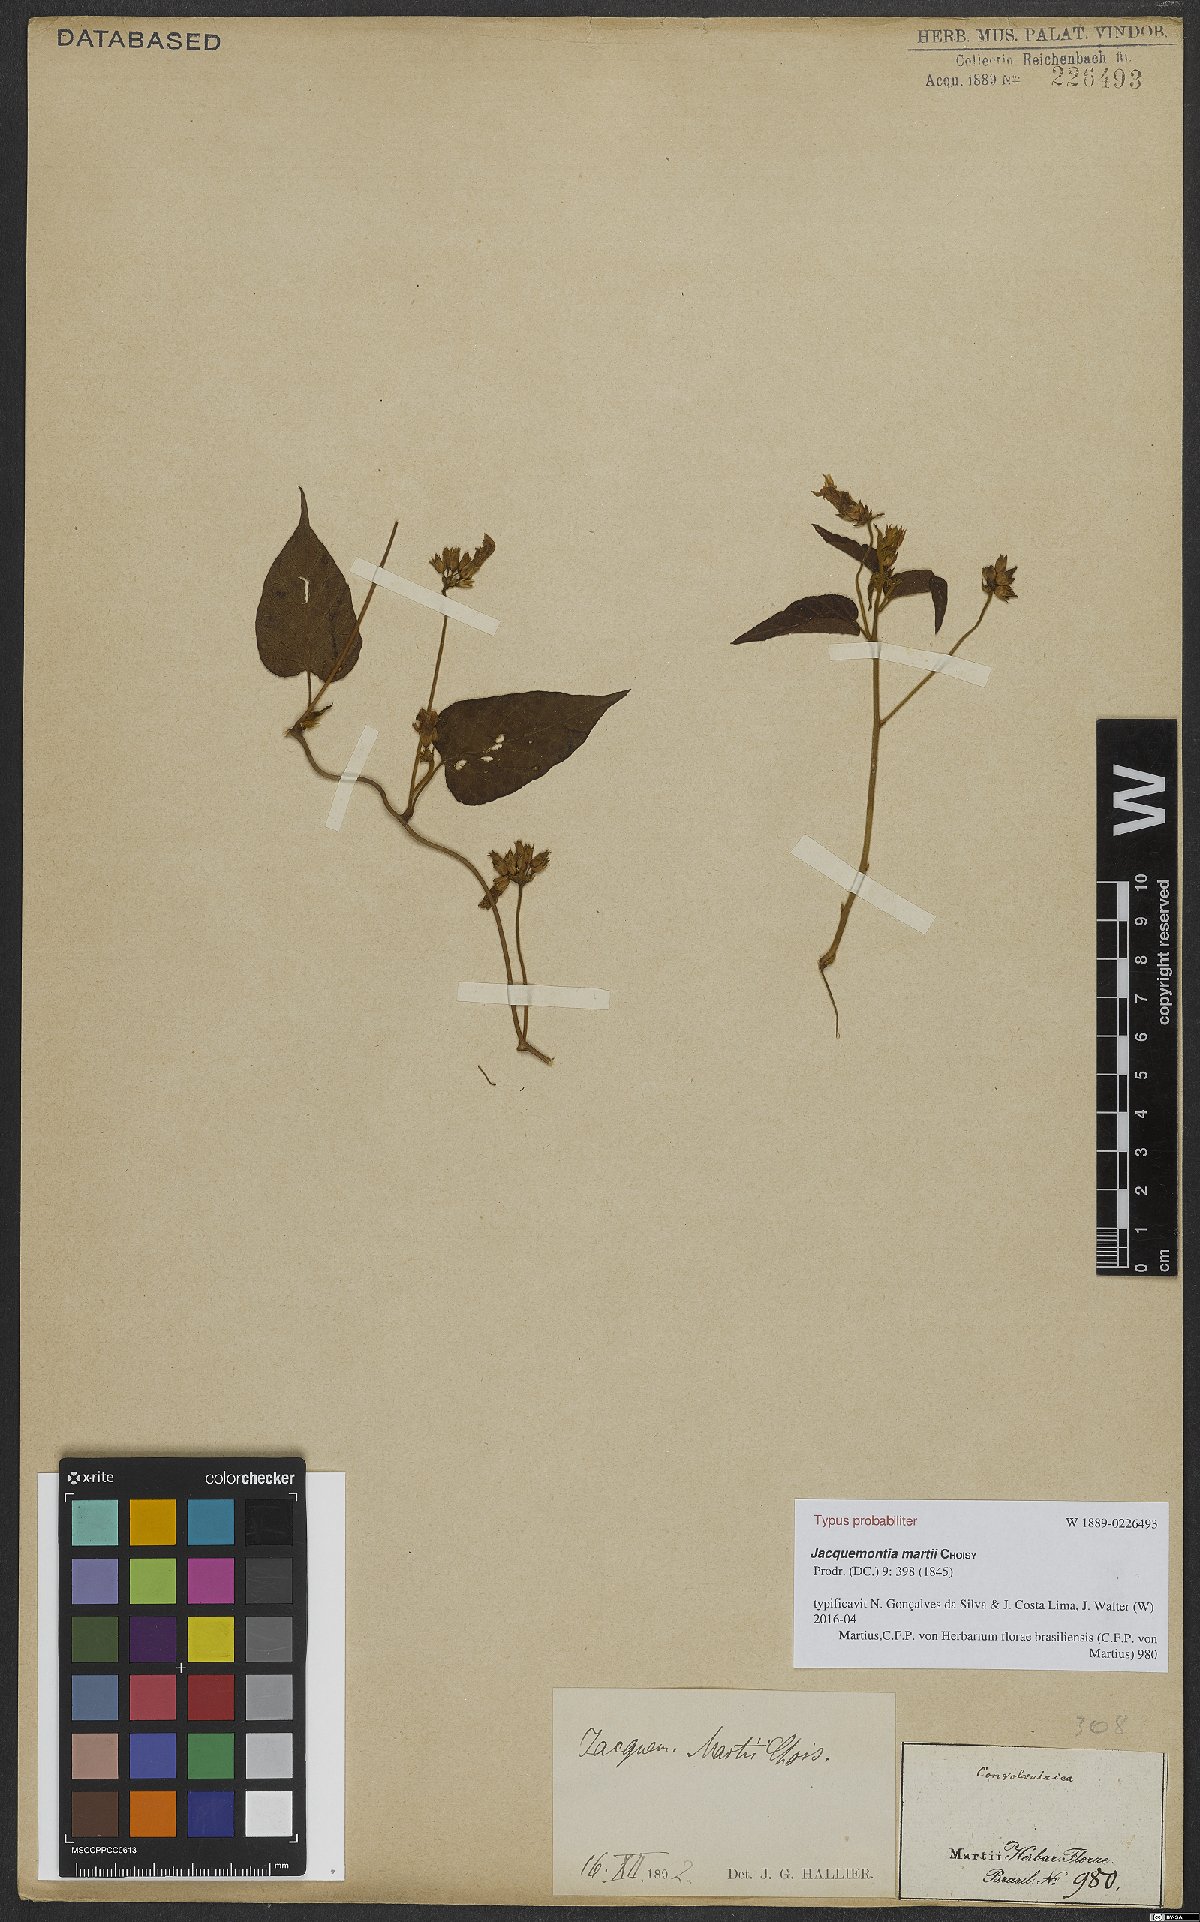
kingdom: Plantae
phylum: Tracheophyta
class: Magnoliopsida
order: Solanales
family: Convolvulaceae
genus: Jacquemontia
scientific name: Jacquemontia martii
